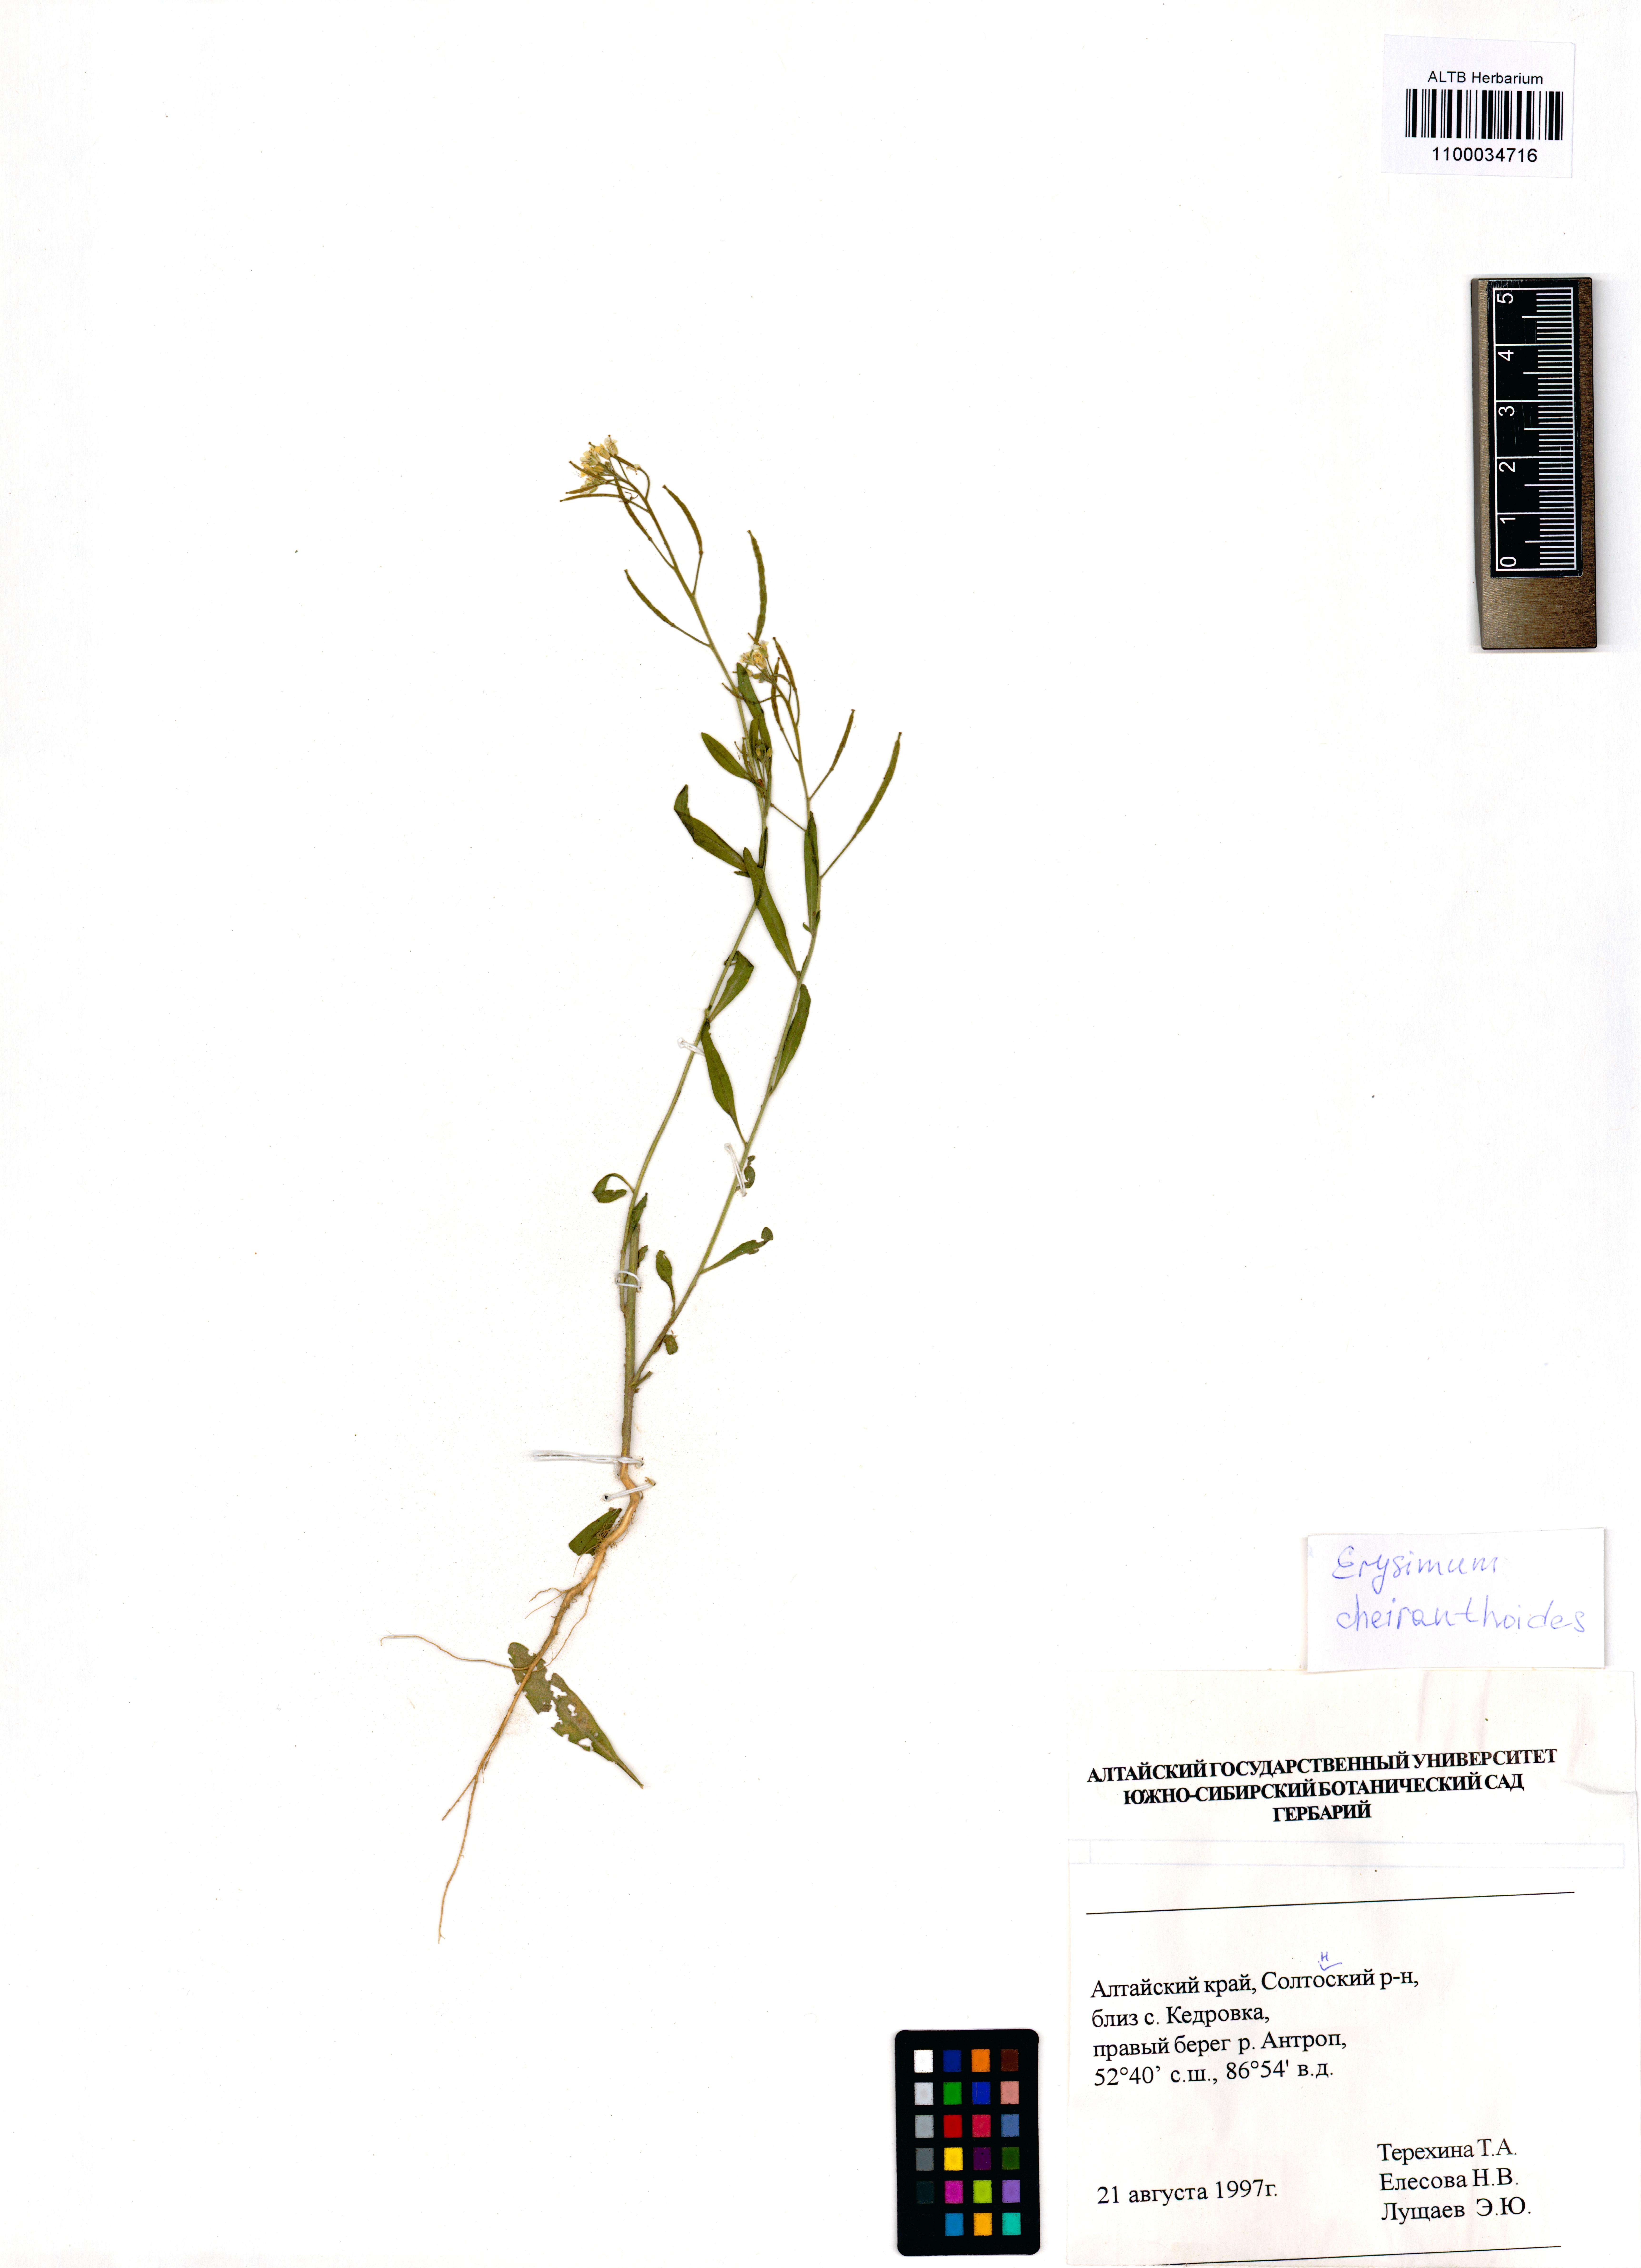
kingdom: Plantae
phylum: Tracheophyta
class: Magnoliopsida
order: Brassicales
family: Brassicaceae
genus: Erysimum
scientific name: Erysimum cheiranthoides
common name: Treacle mustard
